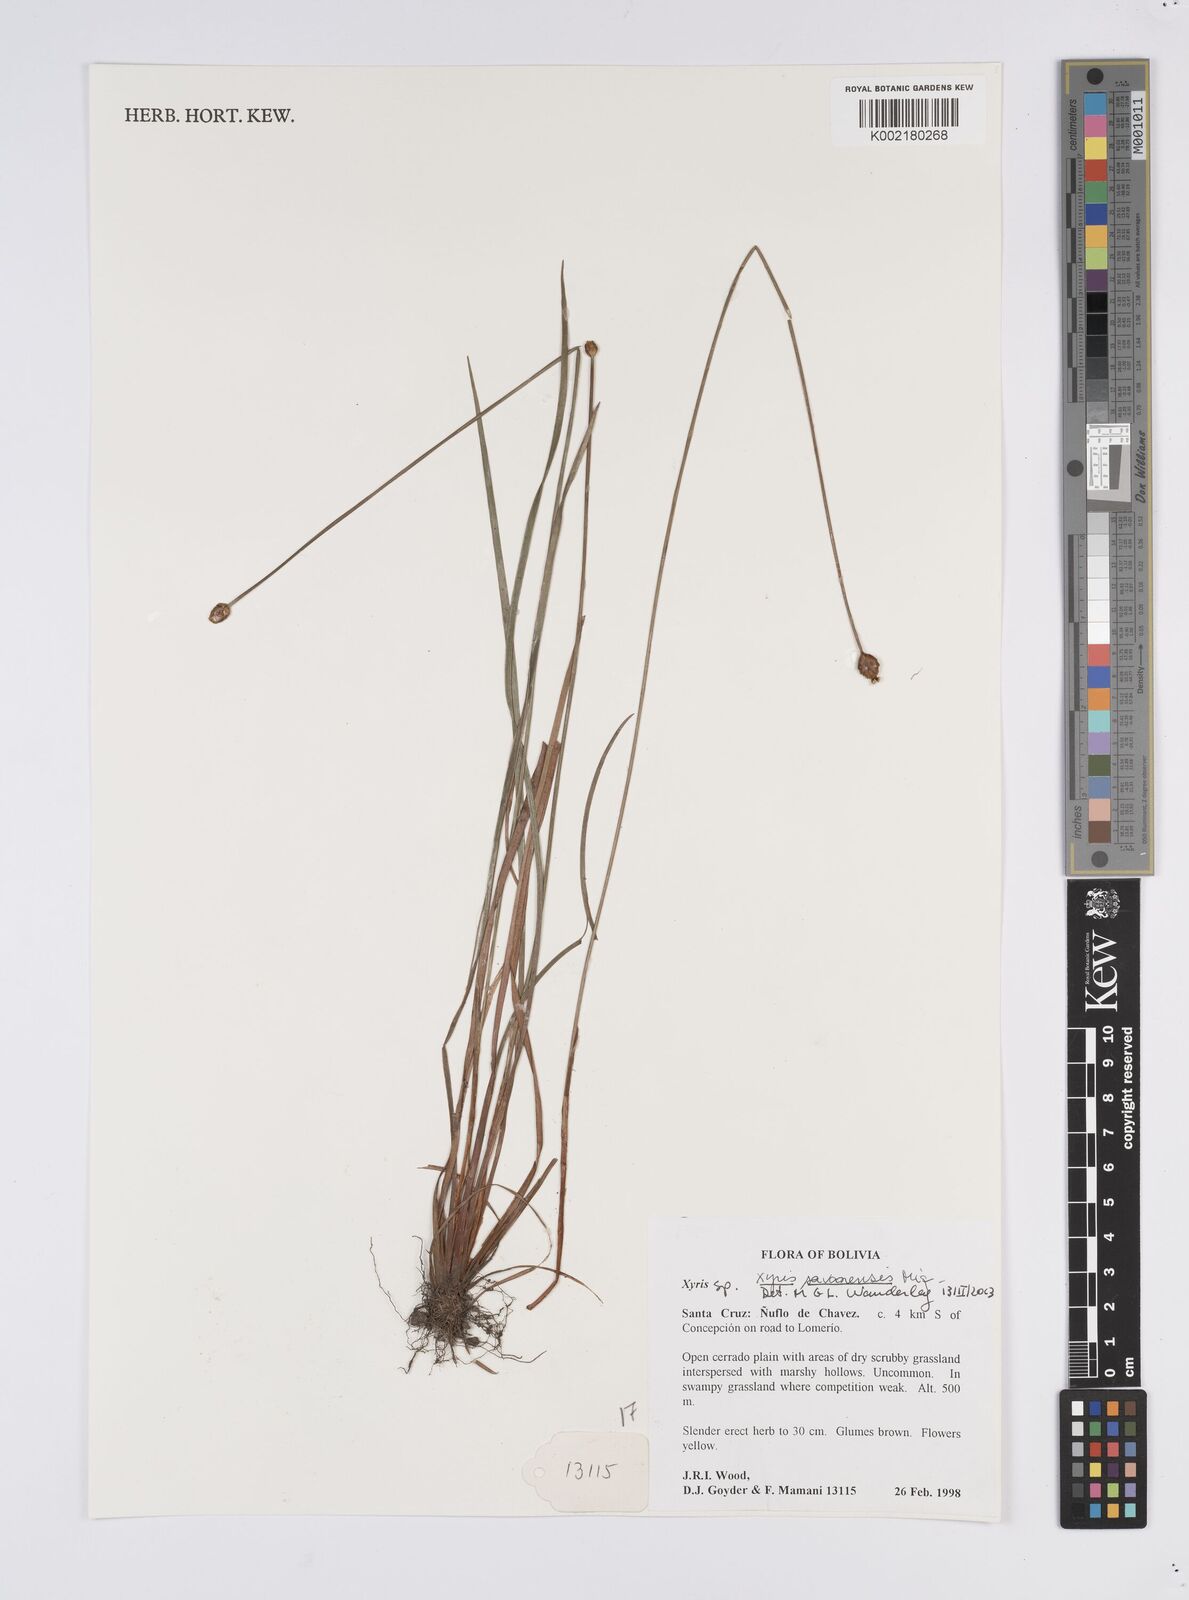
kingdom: Plantae
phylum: Tracheophyta
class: Liliopsida
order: Poales
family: Xyridaceae
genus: Xyris
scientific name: Xyris savanensis
